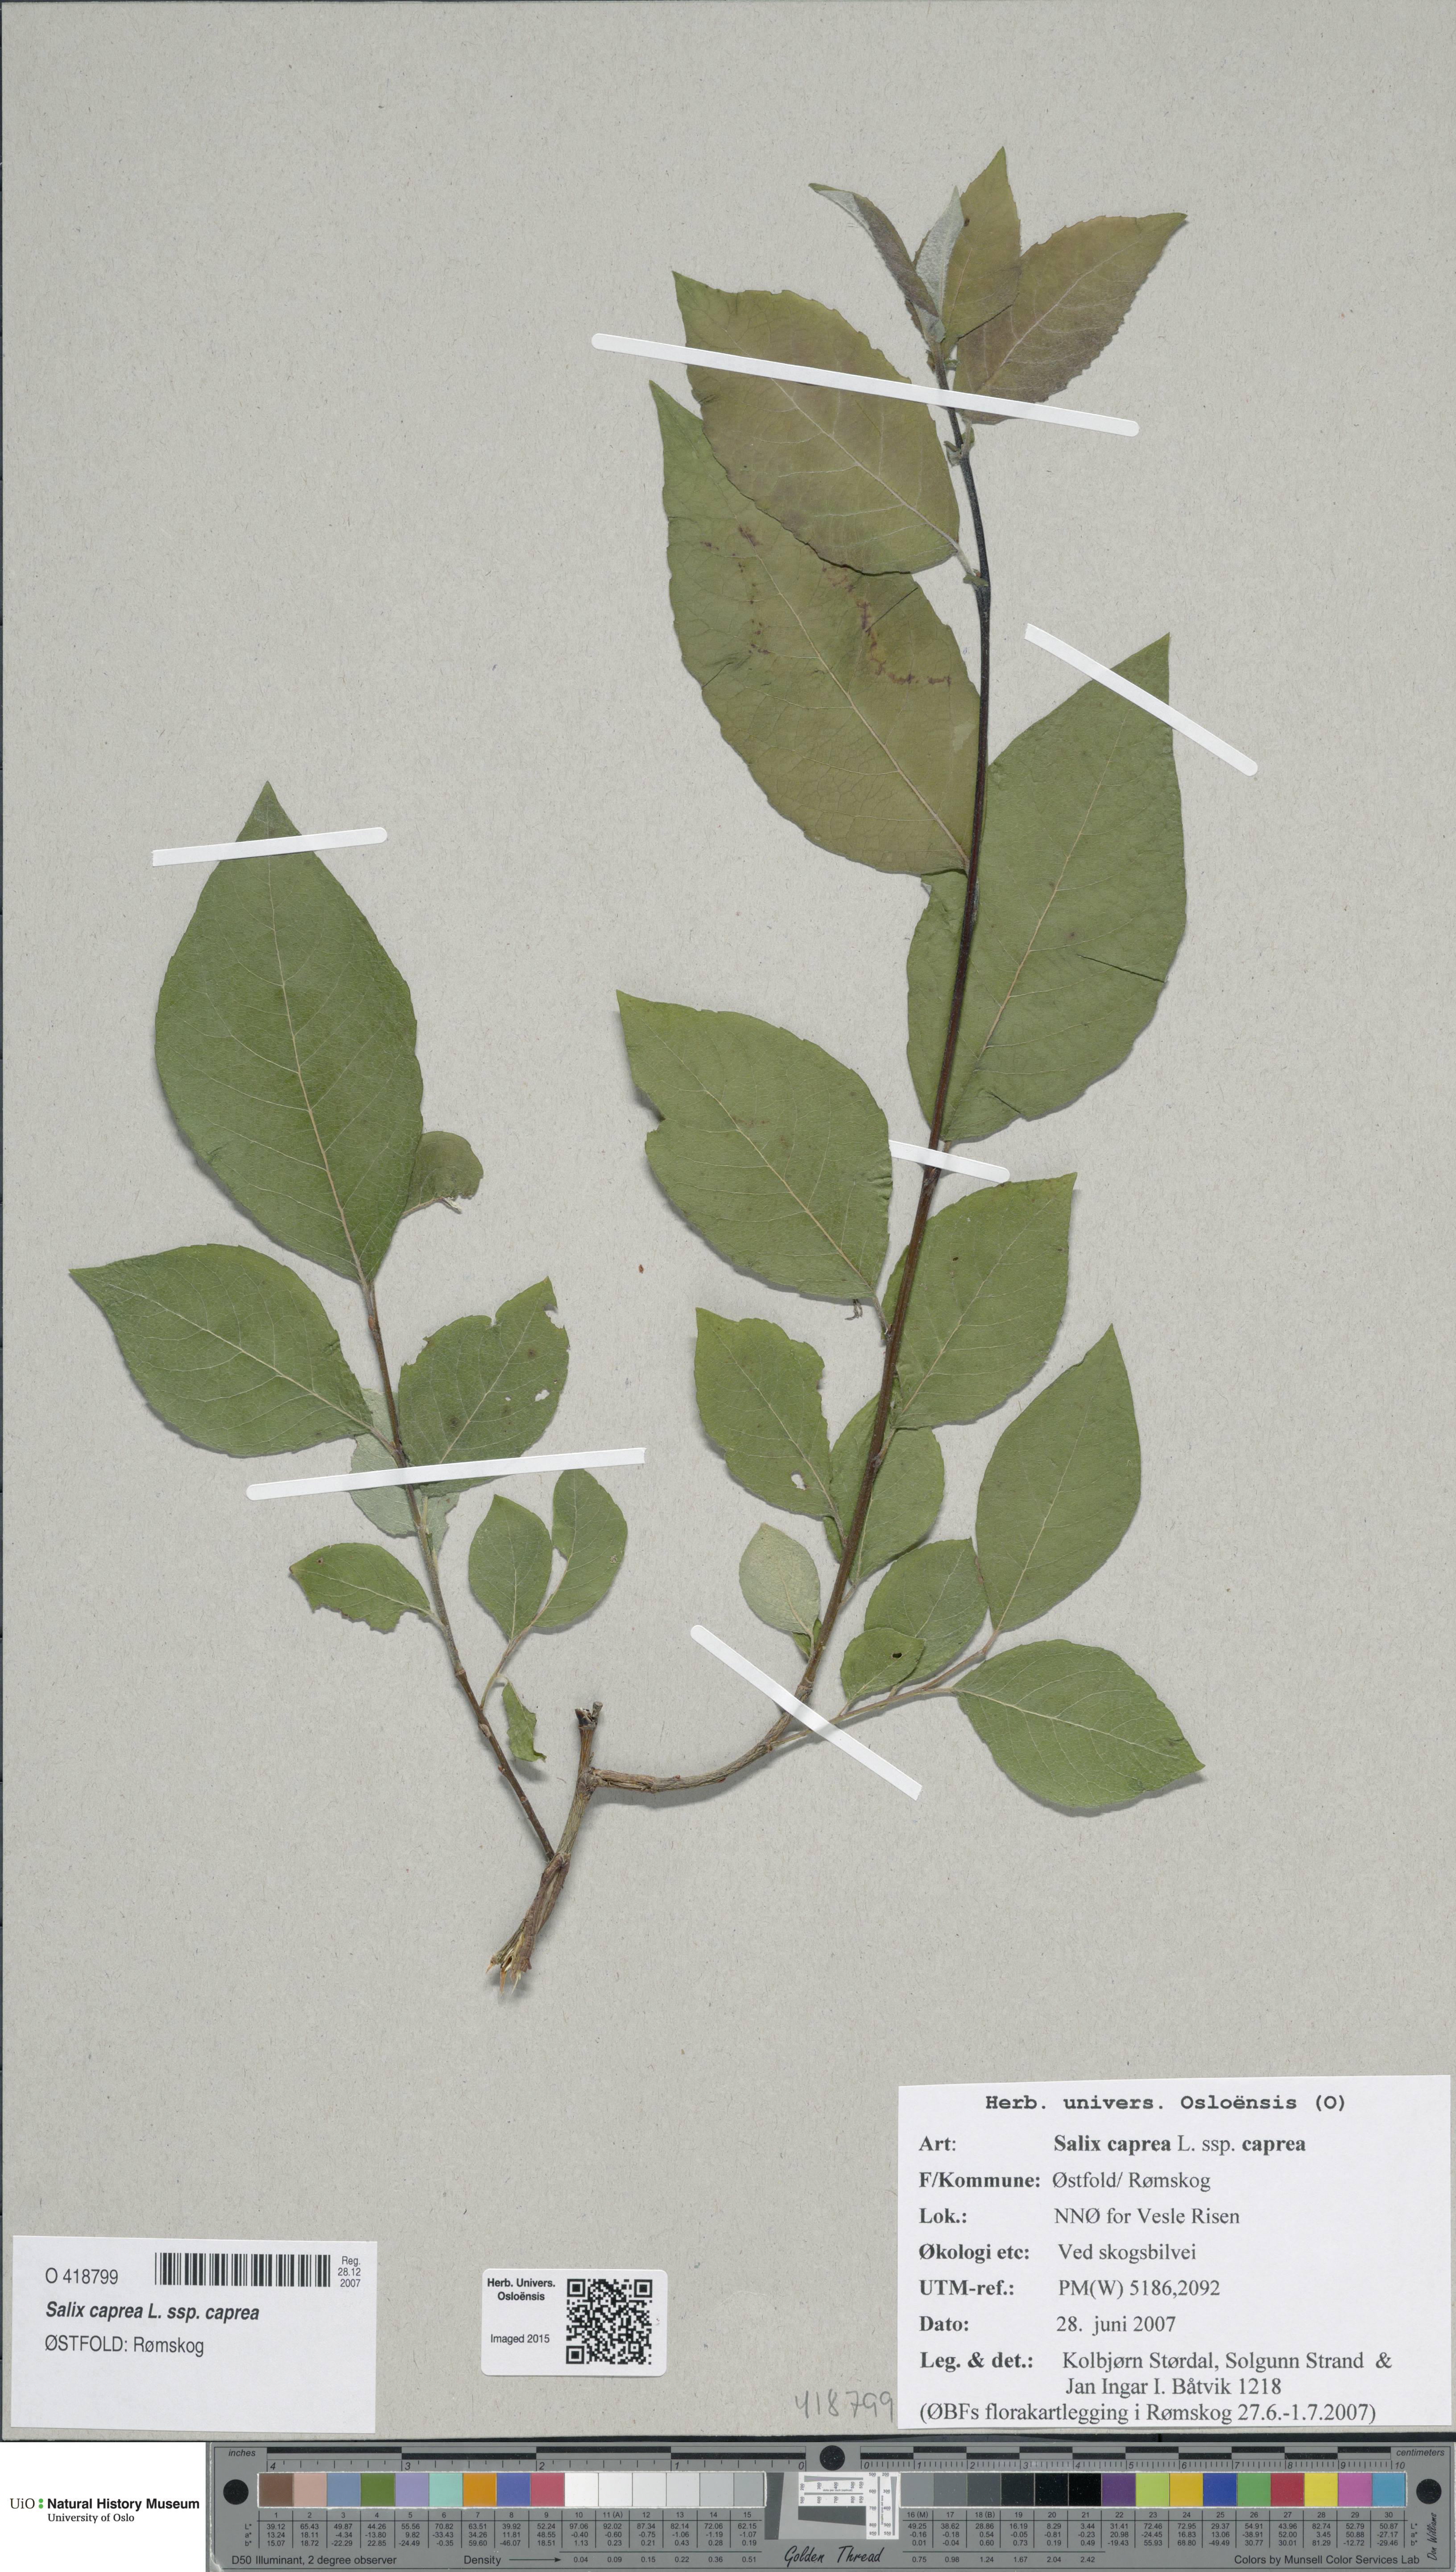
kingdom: Plantae
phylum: Tracheophyta
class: Magnoliopsida
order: Malpighiales
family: Salicaceae
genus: Salix
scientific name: Salix caprea
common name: Goat willow
